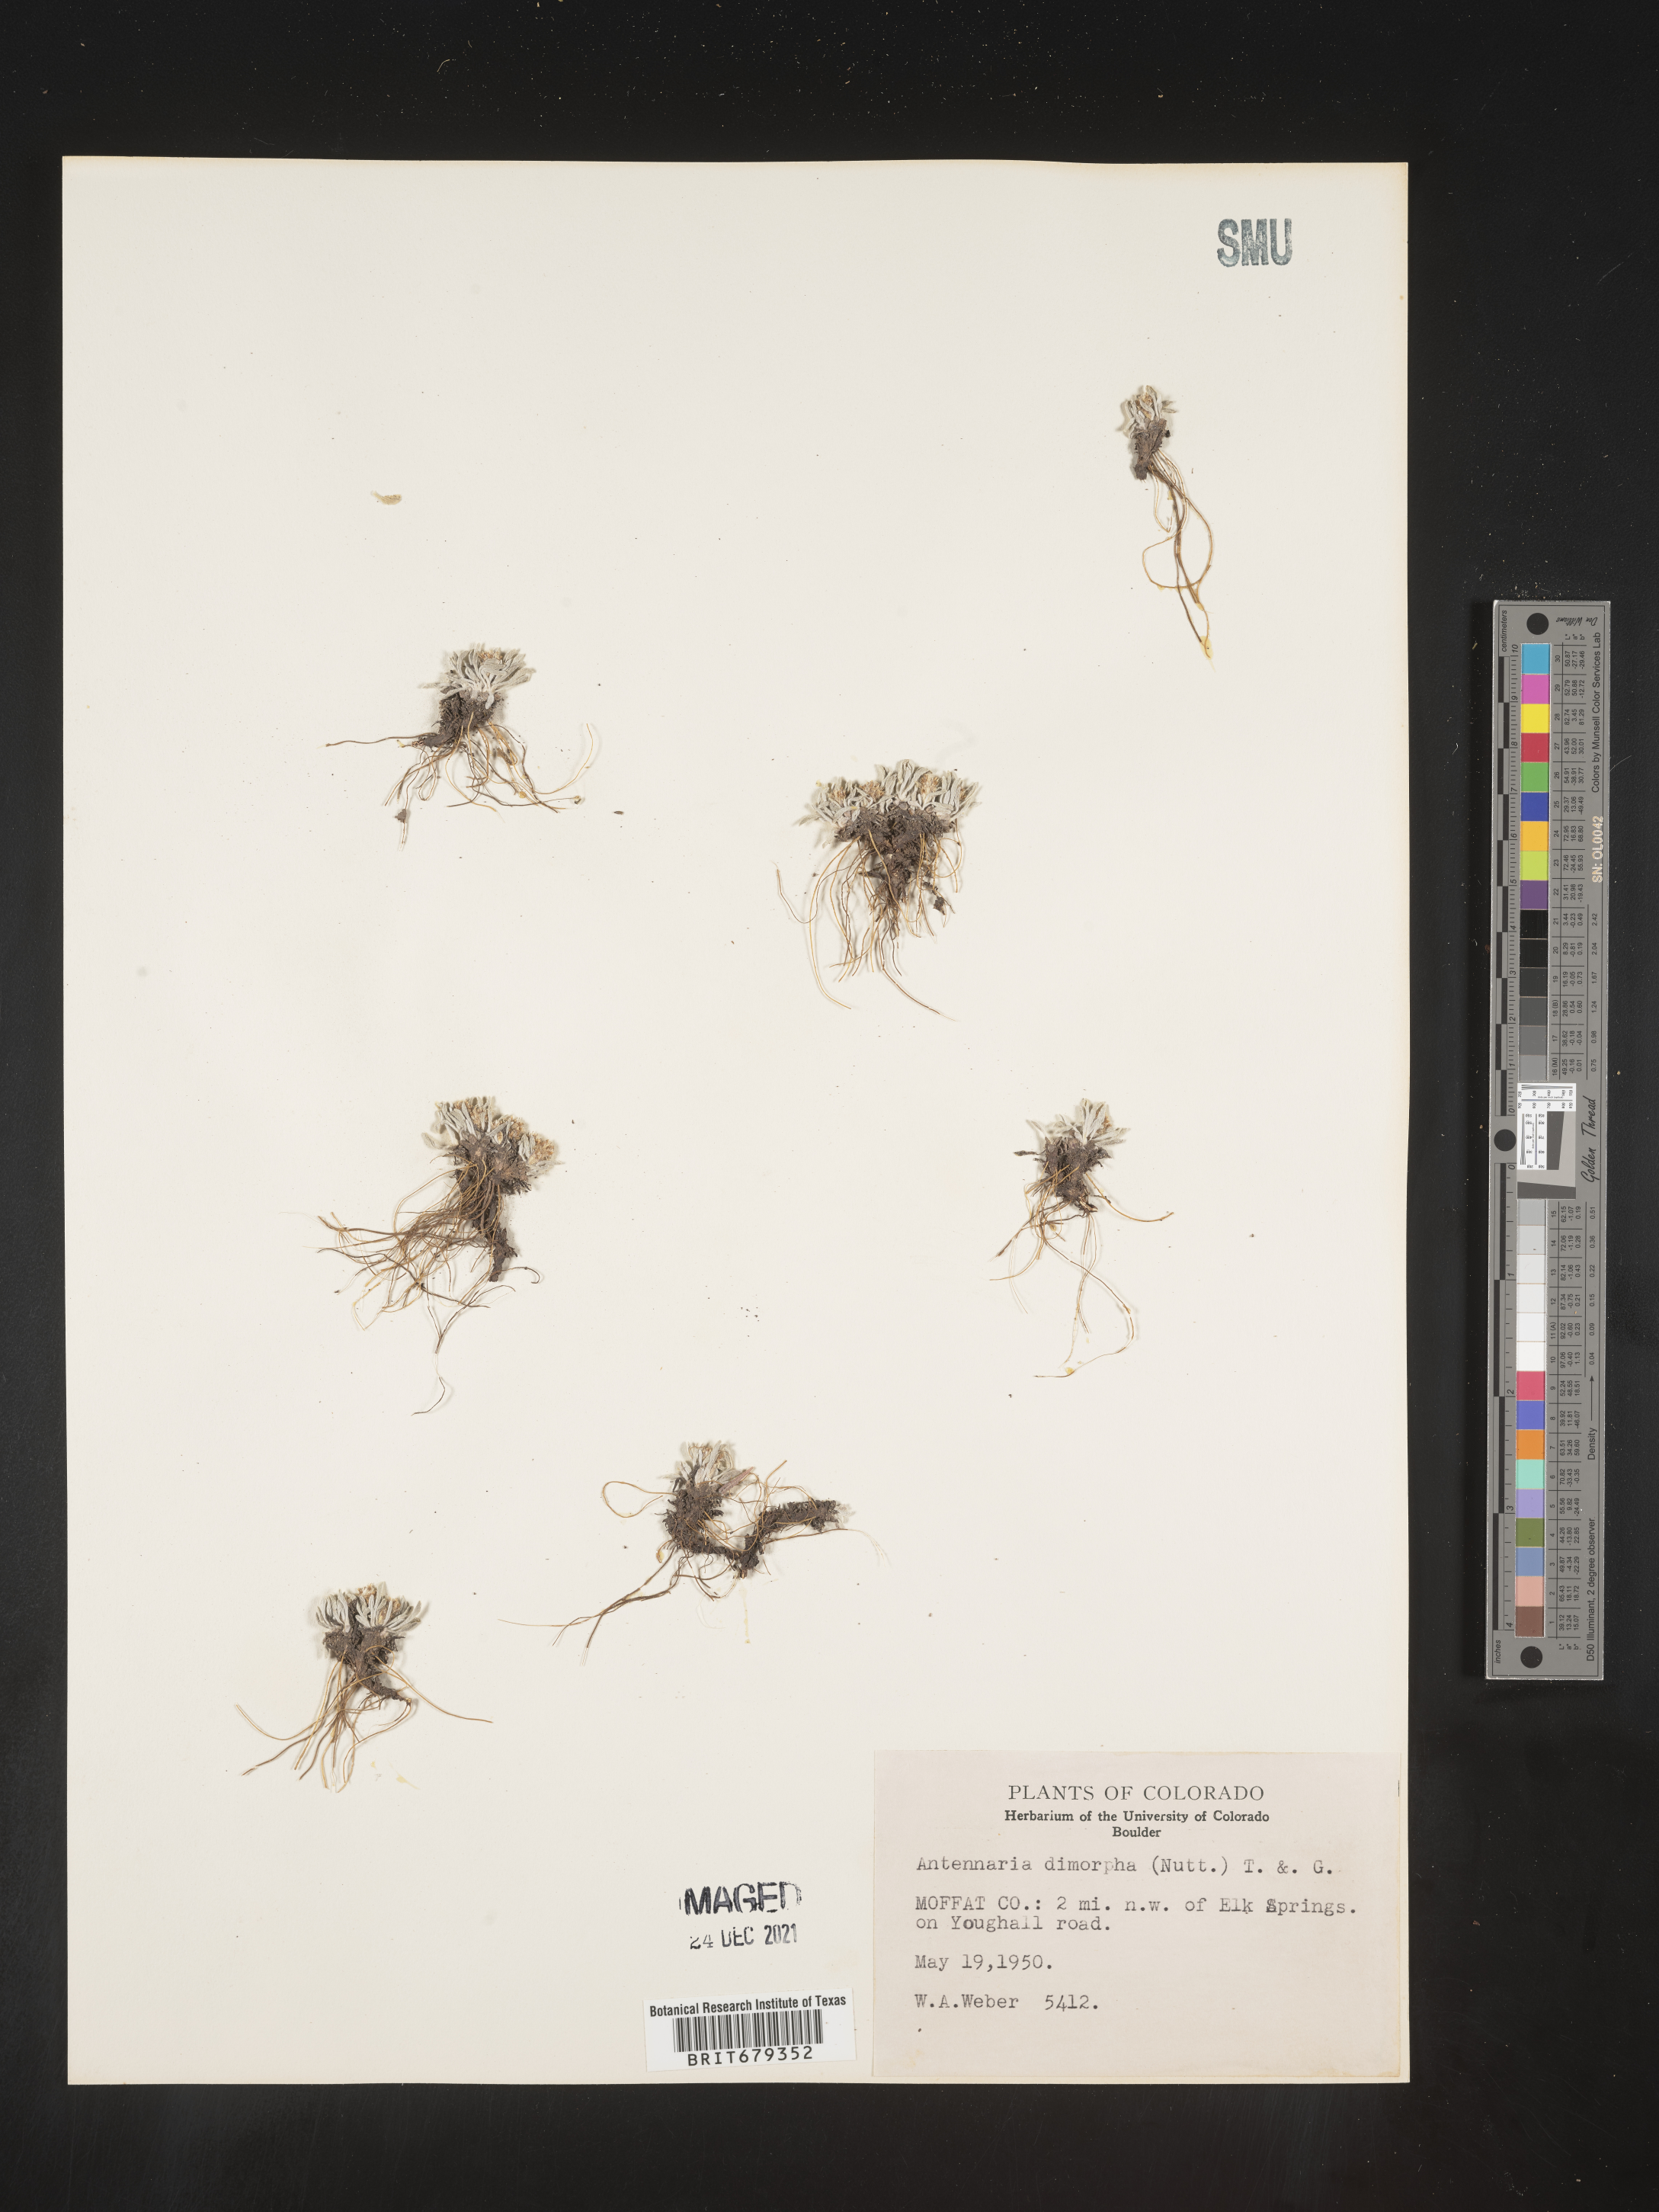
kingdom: Plantae
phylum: Tracheophyta
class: Magnoliopsida
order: Asterales
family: Asteraceae
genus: Antennaria
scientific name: Antennaria dimorpha
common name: Cushion pussytoes
